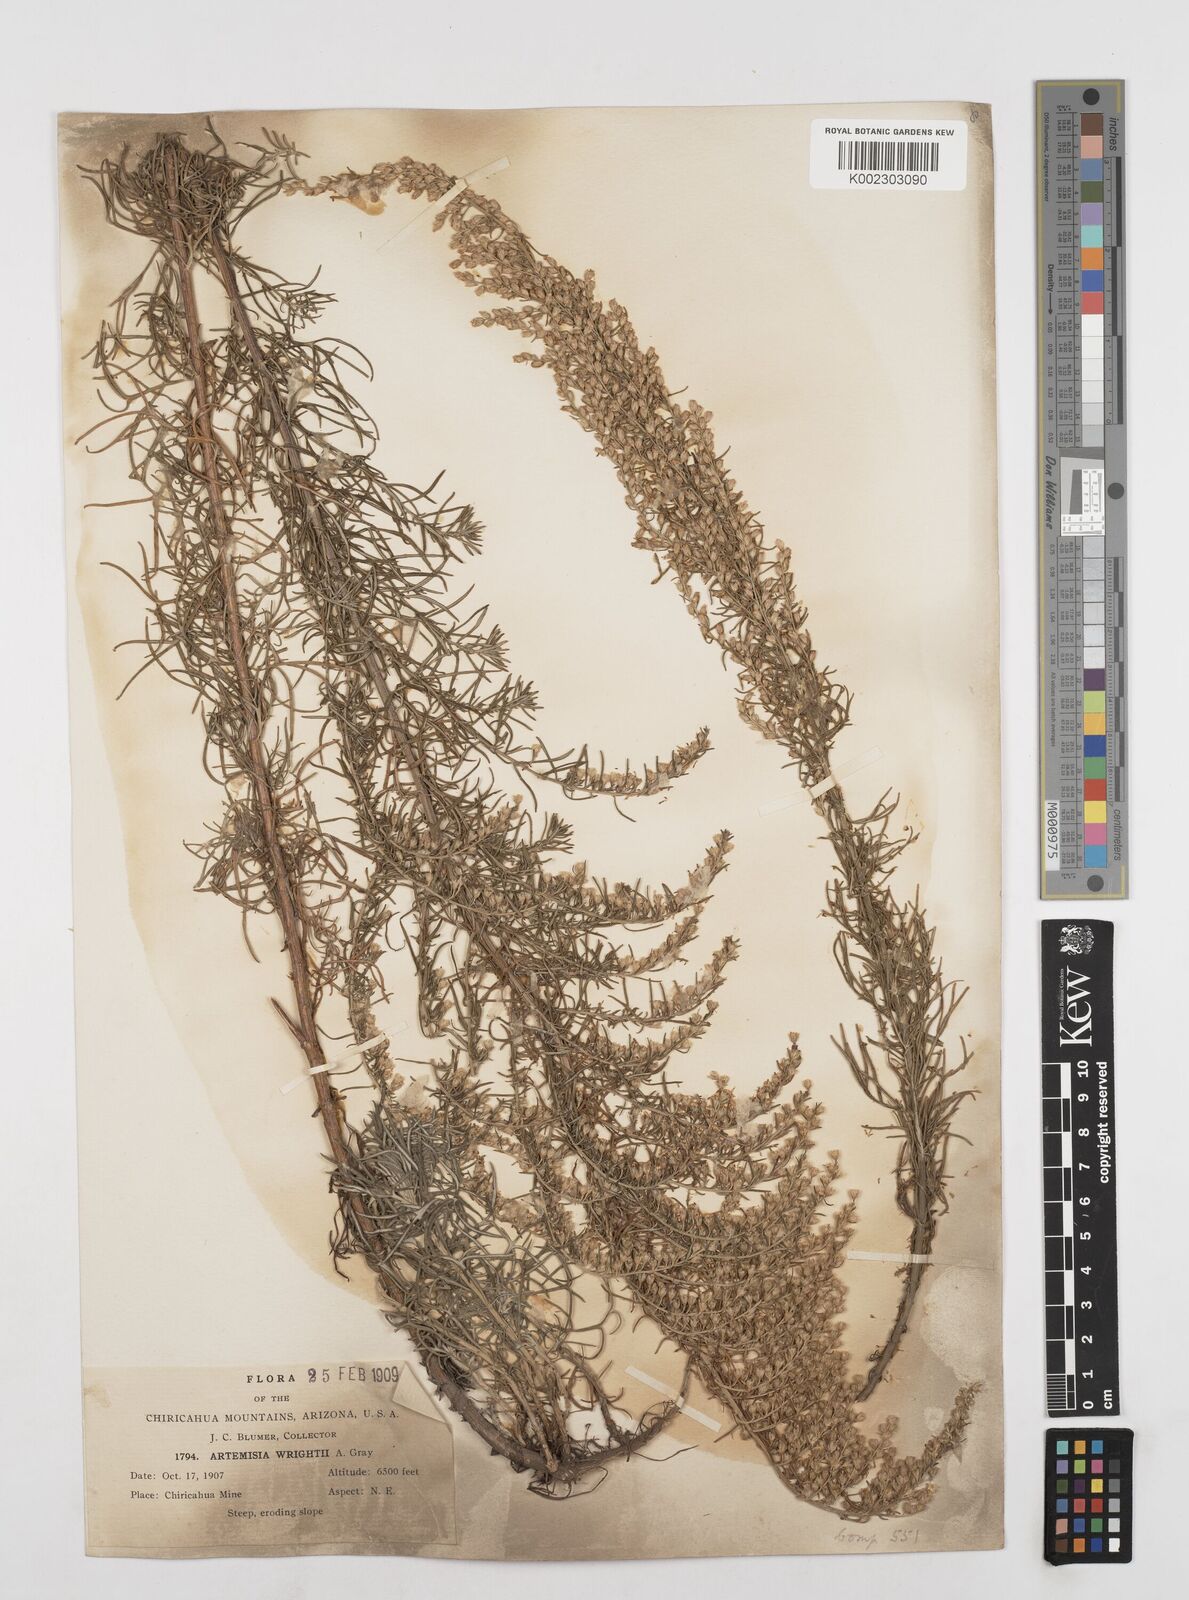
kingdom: Plantae
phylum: Tracheophyta
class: Magnoliopsida
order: Asterales
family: Asteraceae
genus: Artemisia
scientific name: Artemisia carruthii
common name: Carruth wormwood
